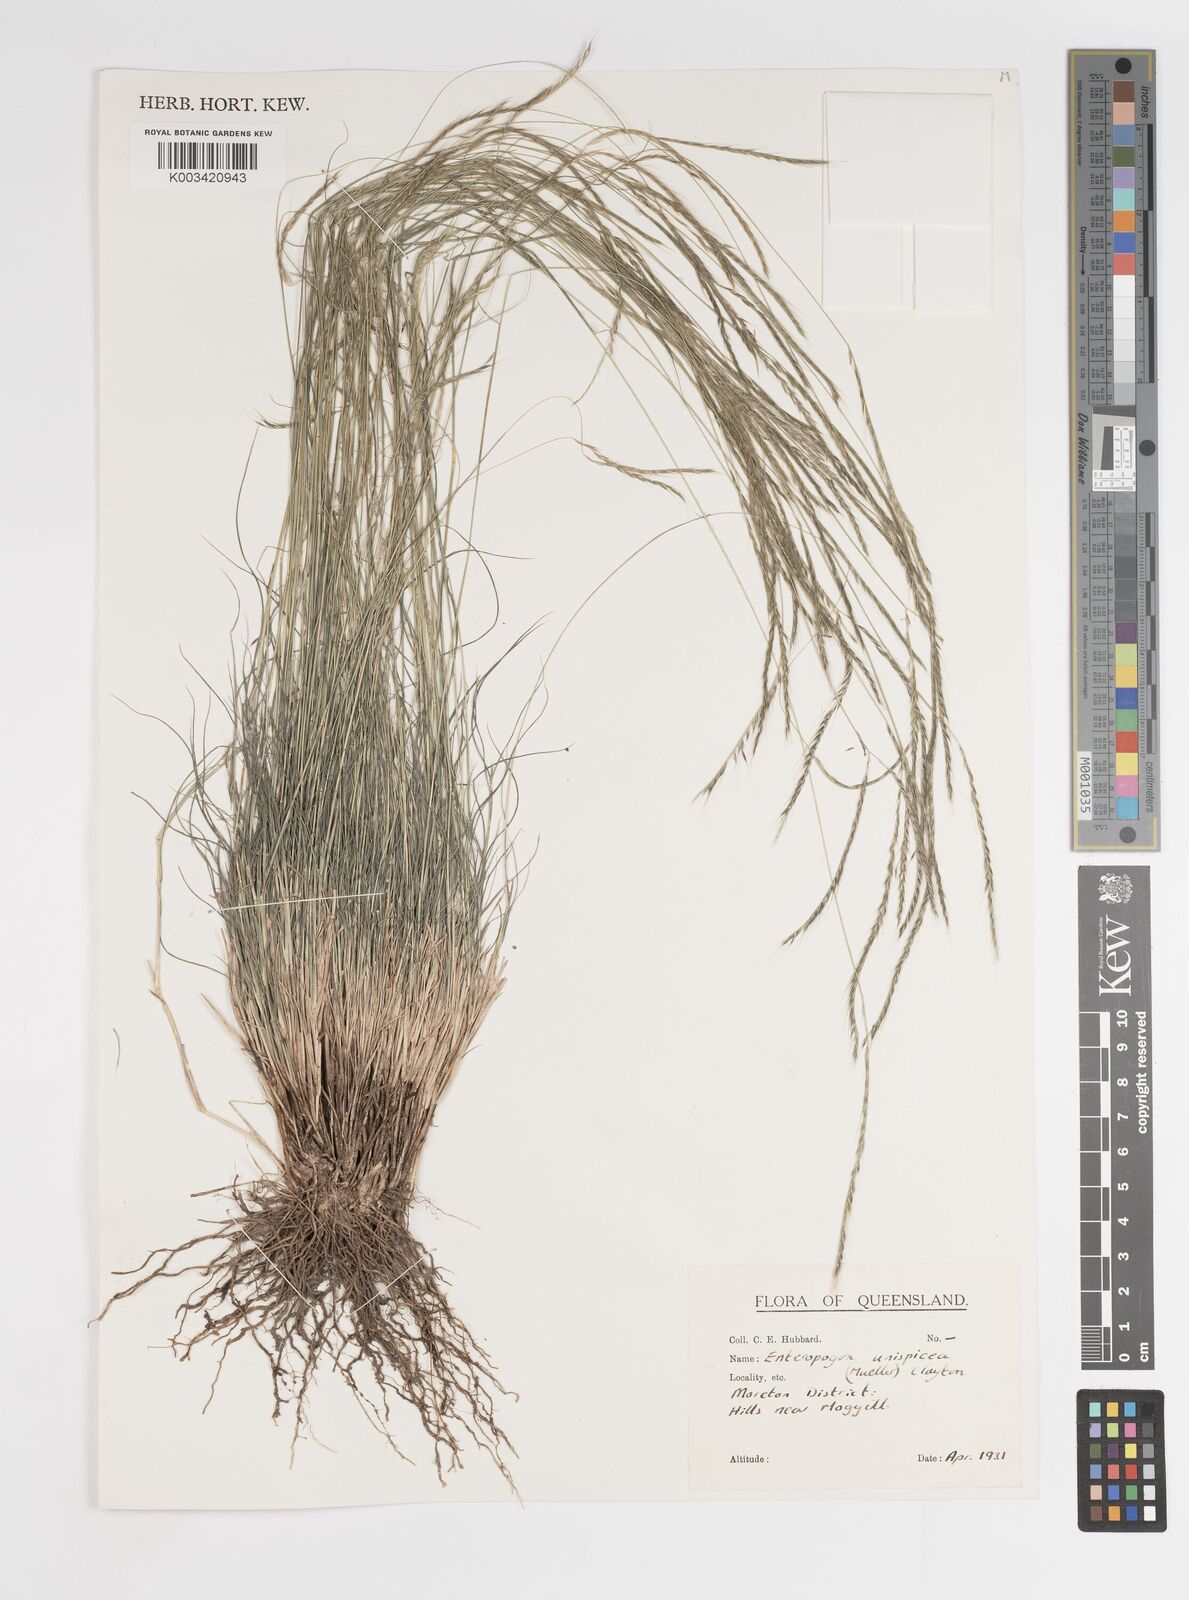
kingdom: Plantae
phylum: Tracheophyta
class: Liliopsida
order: Poales
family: Poaceae
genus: Enteropogon
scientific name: Enteropogon unispiceus
